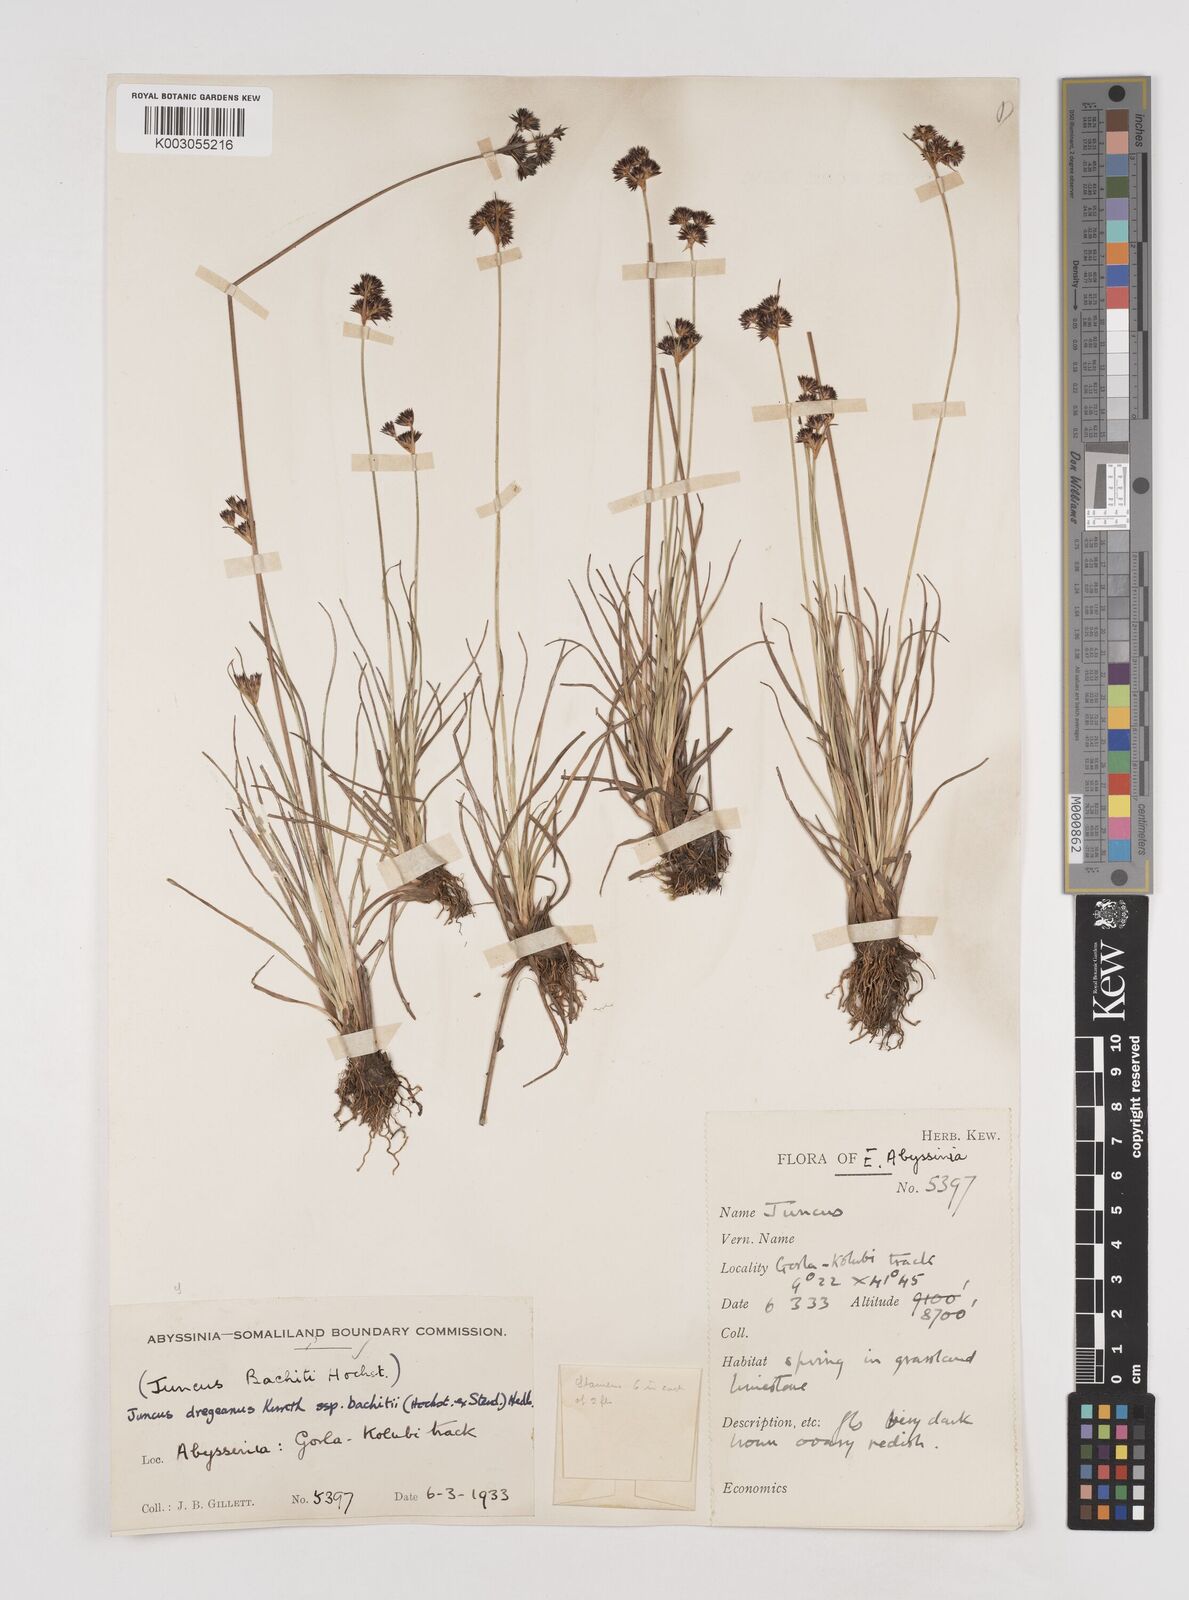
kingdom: Plantae
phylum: Tracheophyta
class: Liliopsida
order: Poales
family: Juncaceae
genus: Juncus
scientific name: Juncus dregeanus
